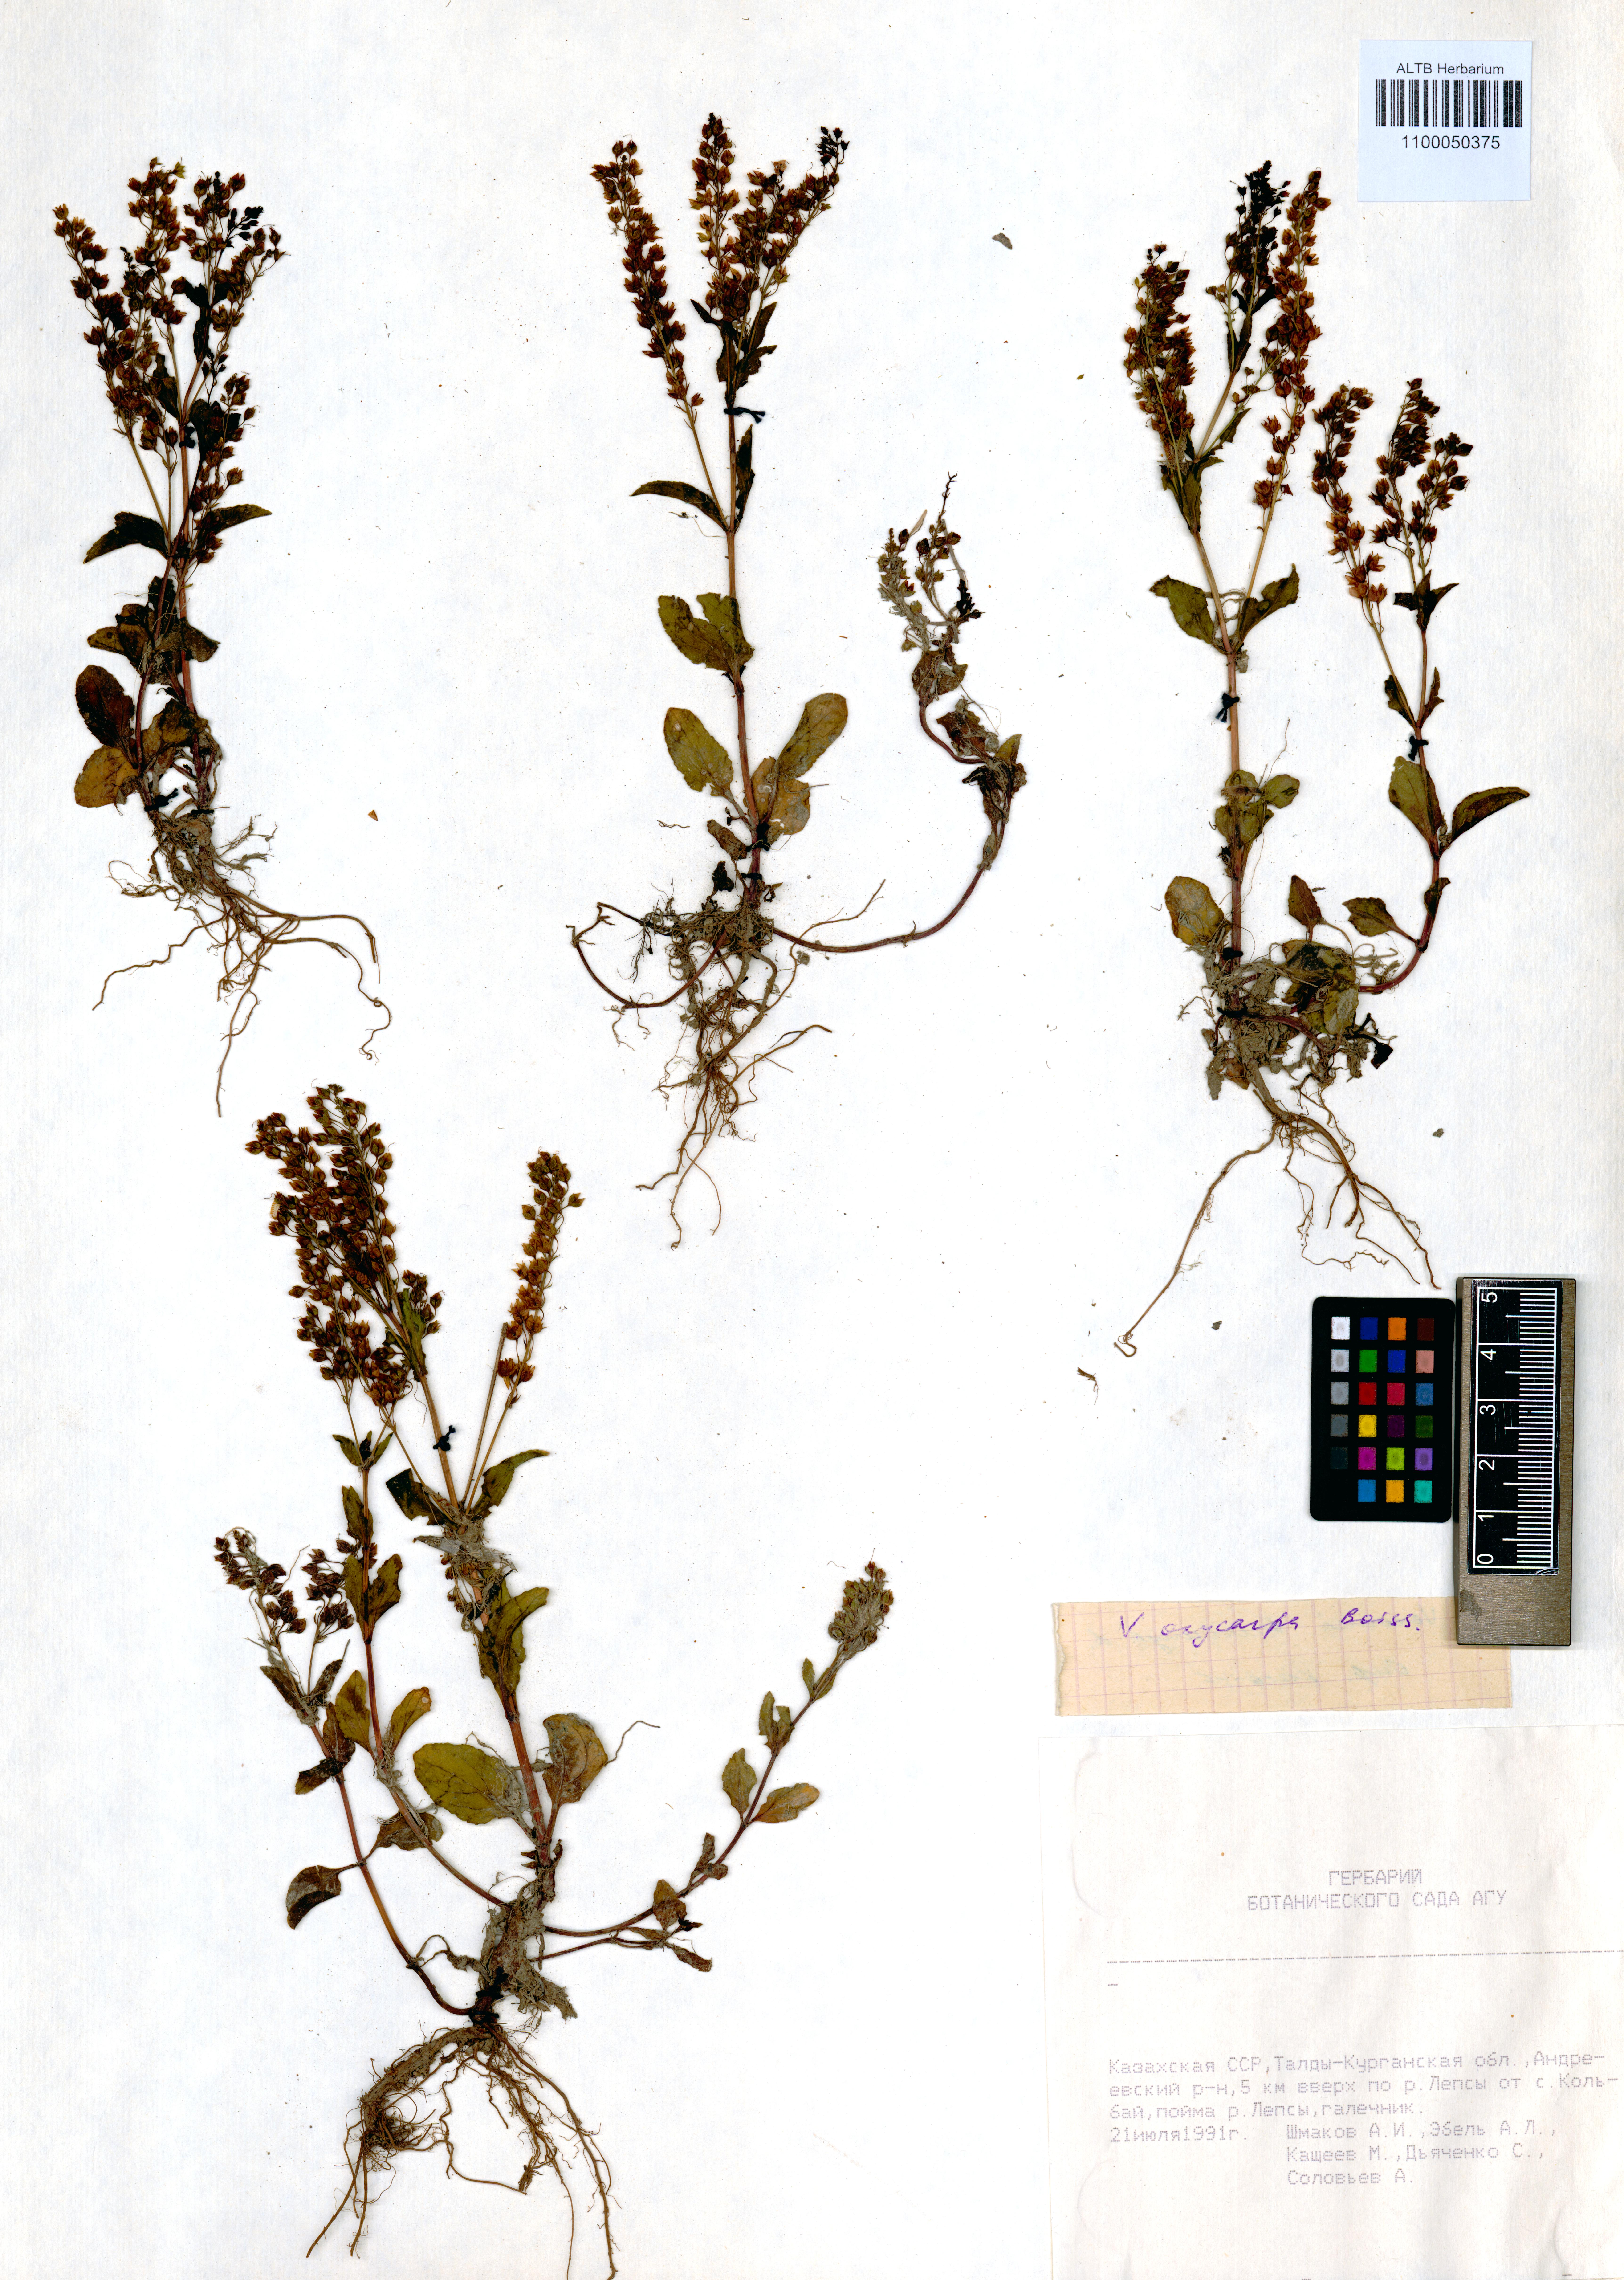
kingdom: Plantae
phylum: Tracheophyta
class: Magnoliopsida
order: Lamiales
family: Plantaginaceae
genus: Veronica
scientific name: Veronica oxycarpa
